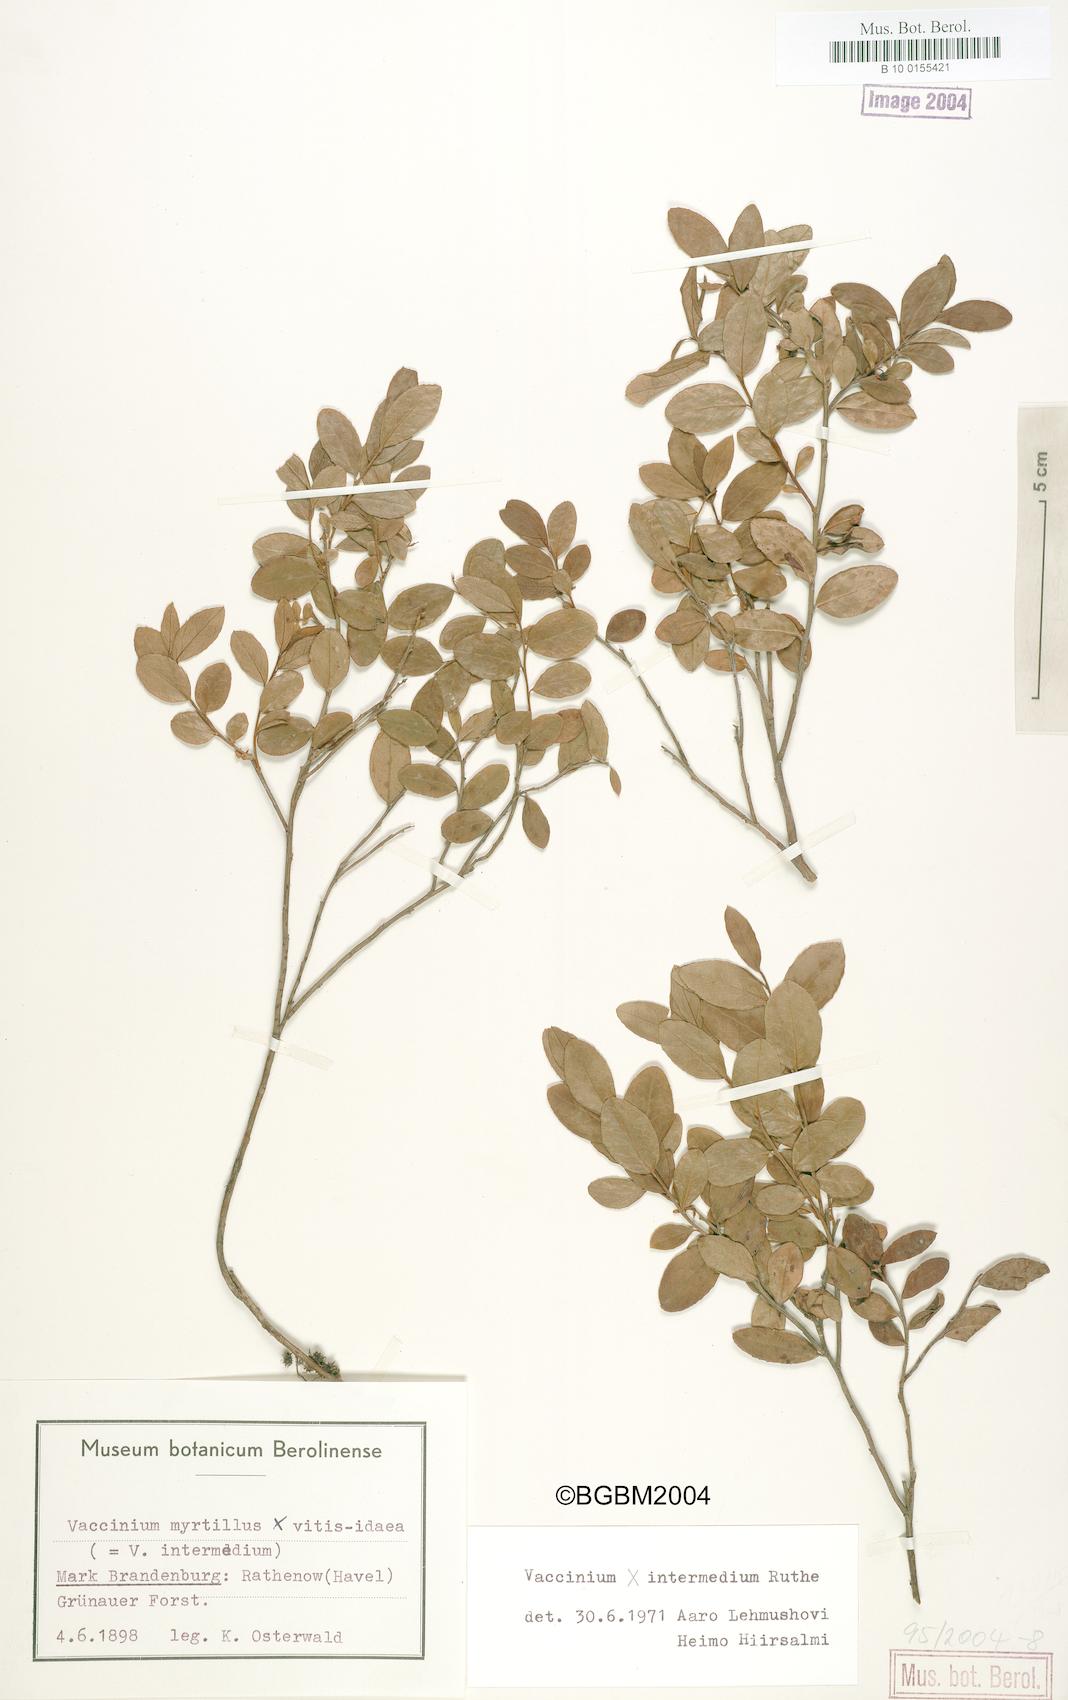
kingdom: Plantae
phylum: Tracheophyta
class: Magnoliopsida
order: Ericales
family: Ericaceae
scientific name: Ericaceae
